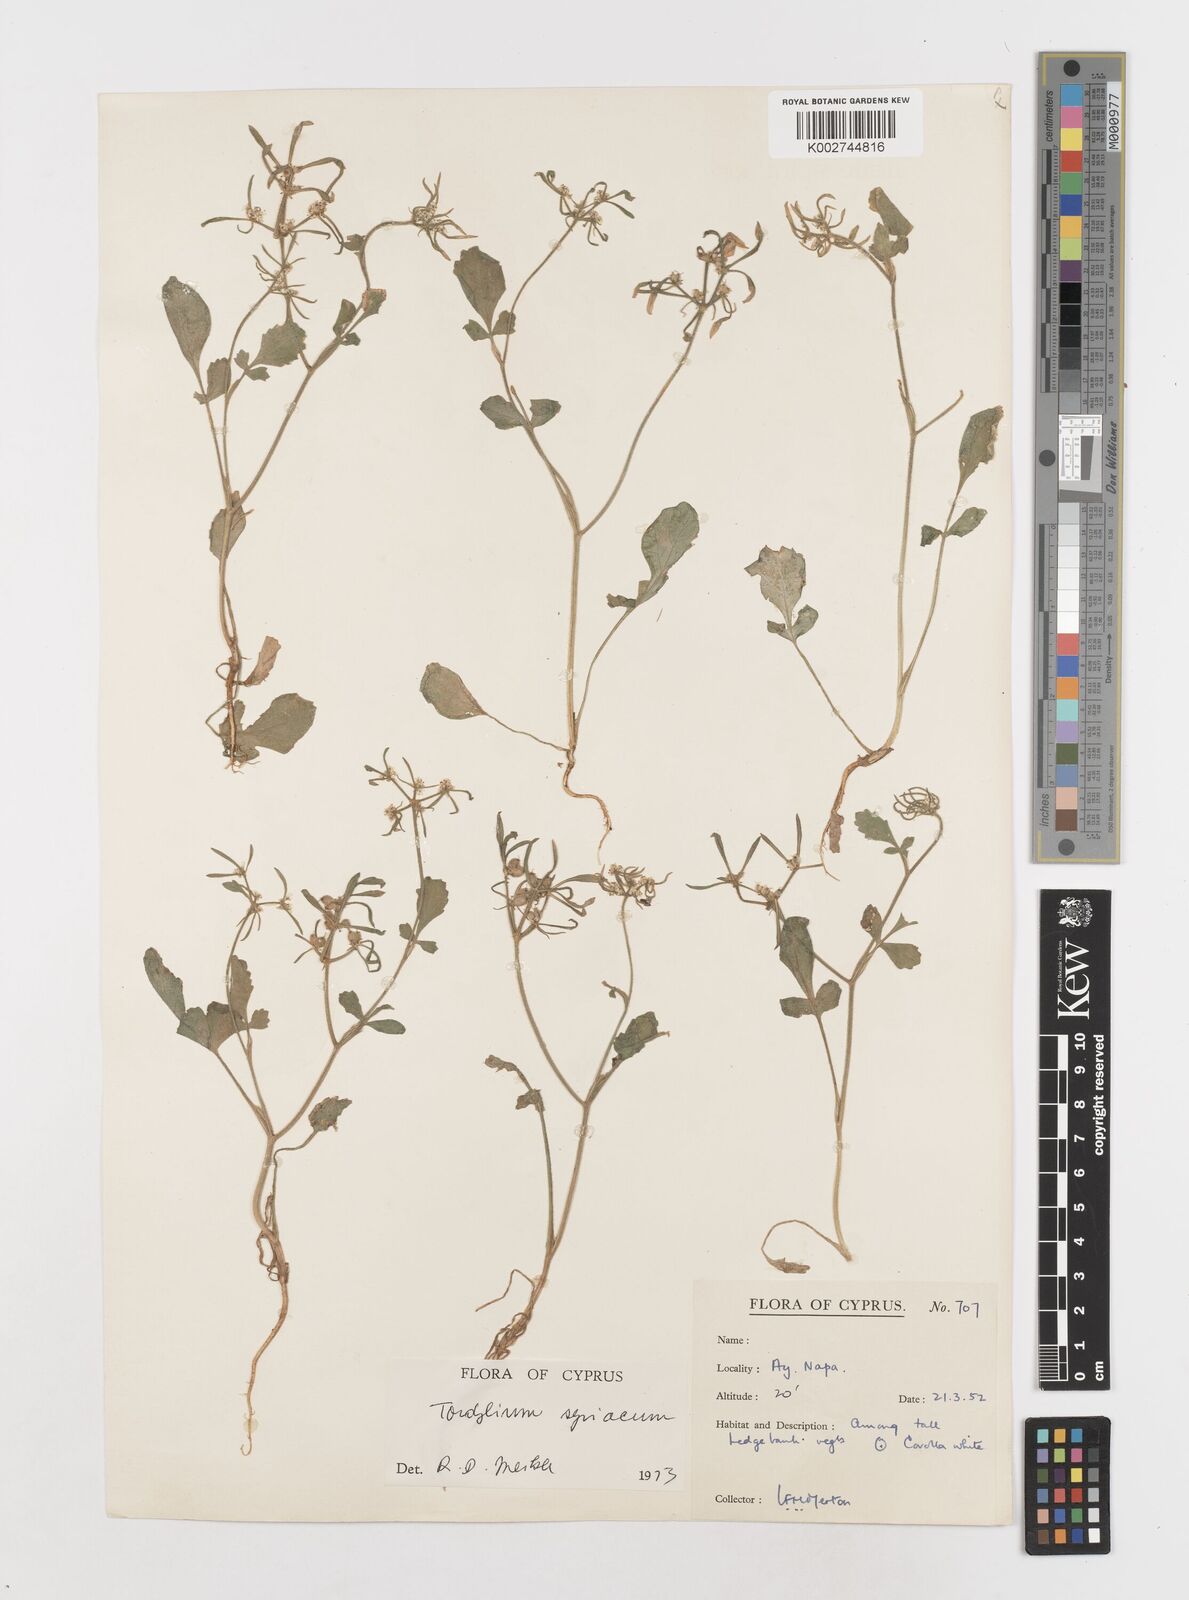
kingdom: Plantae
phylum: Tracheophyta
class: Magnoliopsida
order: Apiales
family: Apiaceae
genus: Tordylium
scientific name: Tordylium syriacum
